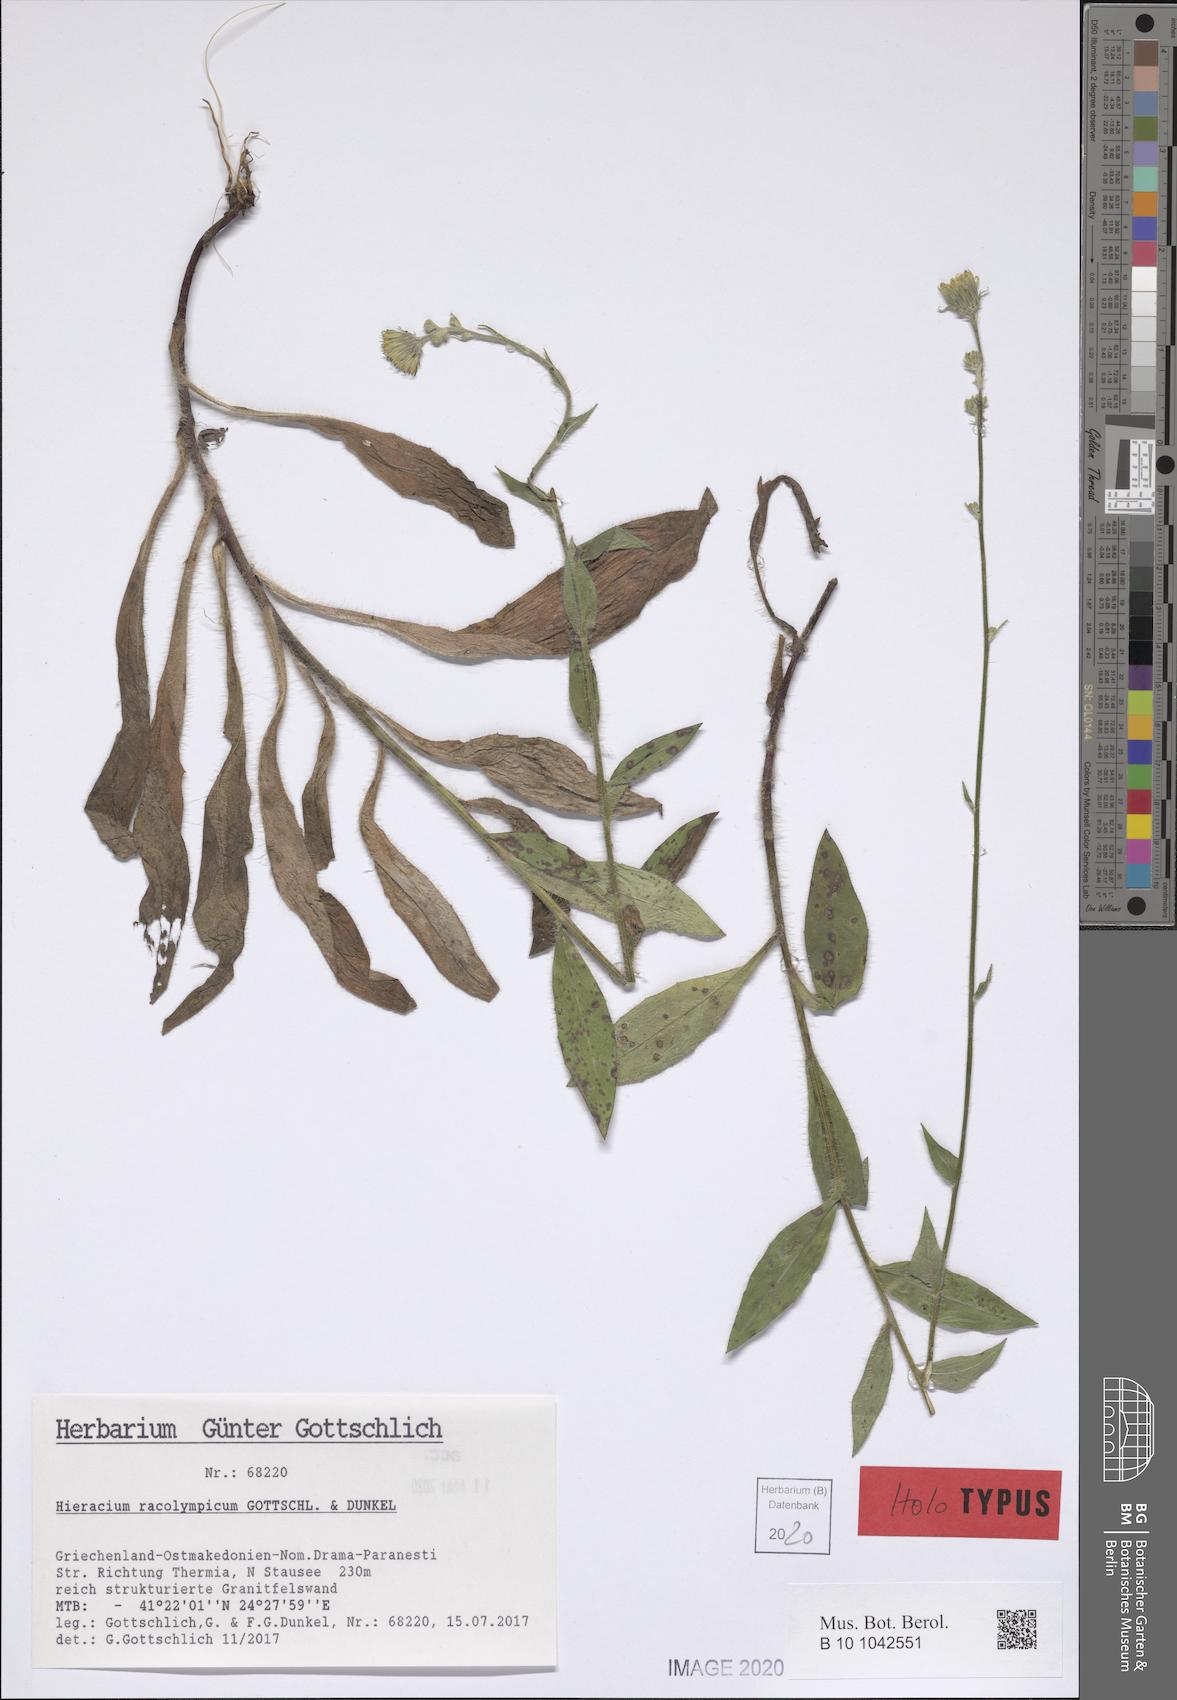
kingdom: Plantae
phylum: Tracheophyta
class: Magnoliopsida
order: Asterales
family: Asteraceae
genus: Hieracium
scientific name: Hieracium racolympicum
